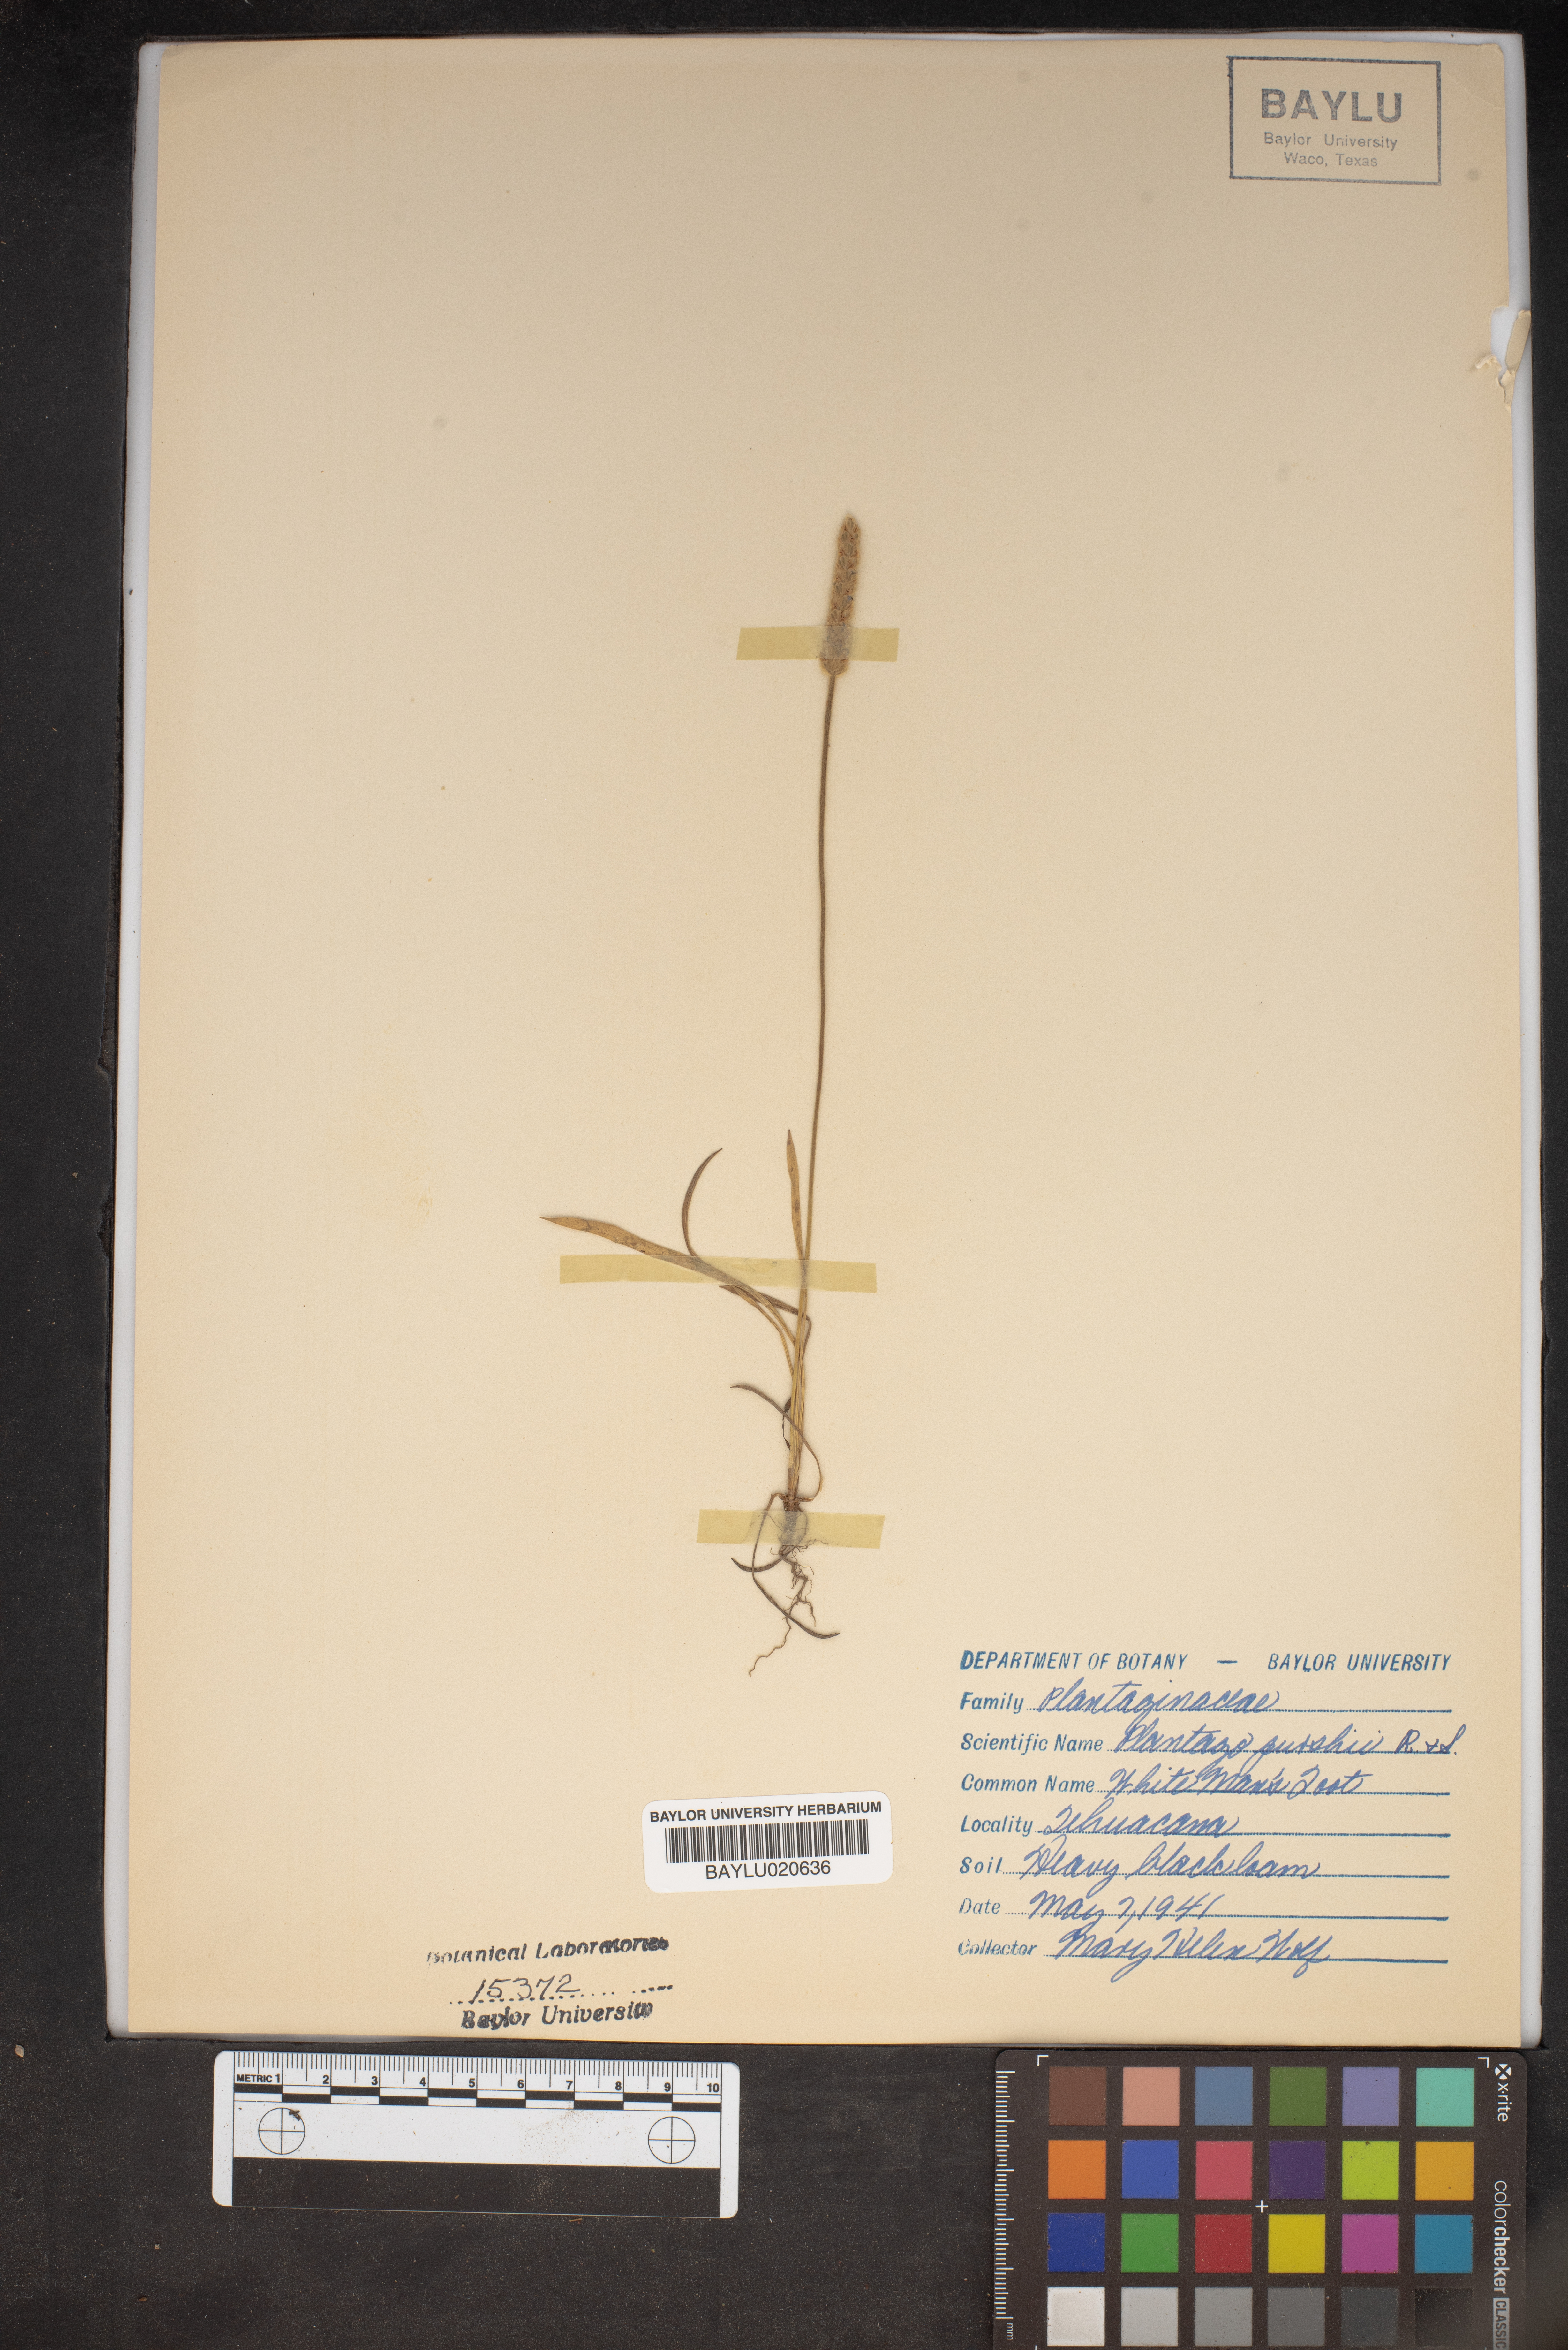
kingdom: Plantae
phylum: Tracheophyta
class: Magnoliopsida
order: Lamiales
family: Plantaginaceae
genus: Plantago
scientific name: Plantago patagonica
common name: Patagonia indian-wheat
